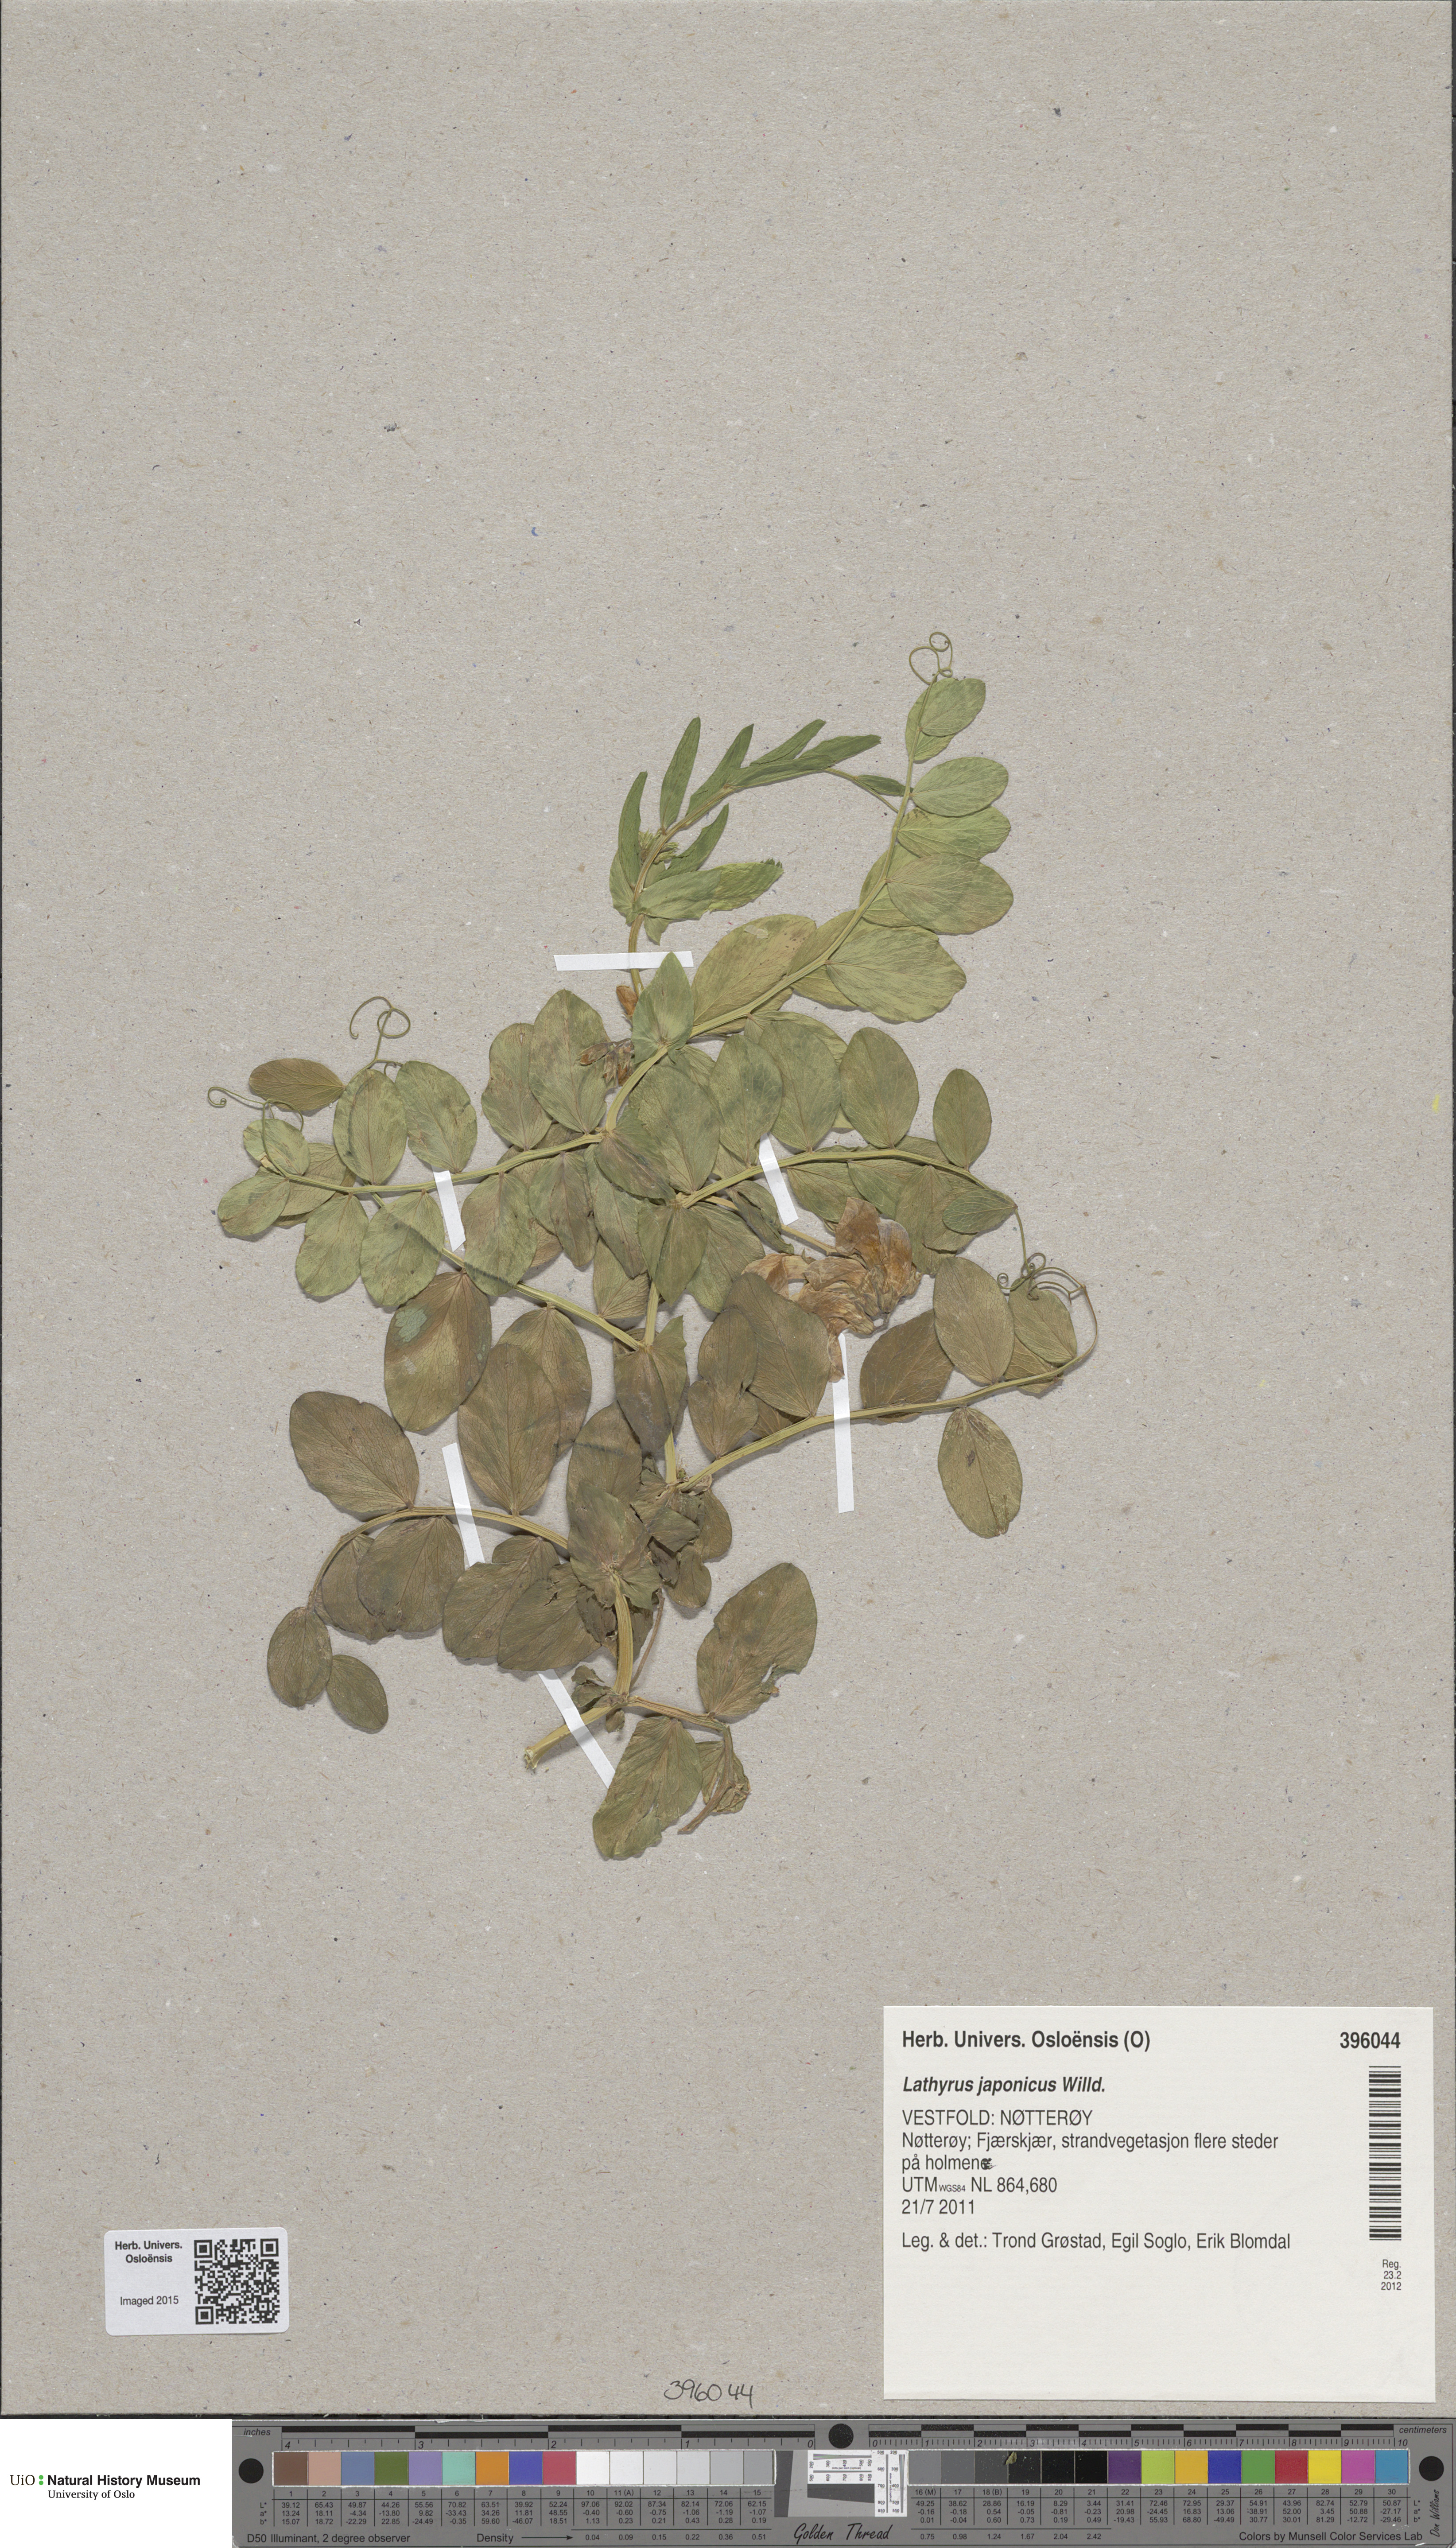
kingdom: Plantae
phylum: Tracheophyta
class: Magnoliopsida
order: Fabales
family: Fabaceae
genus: Lathyrus
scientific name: Lathyrus japonicus
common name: Sea pea
